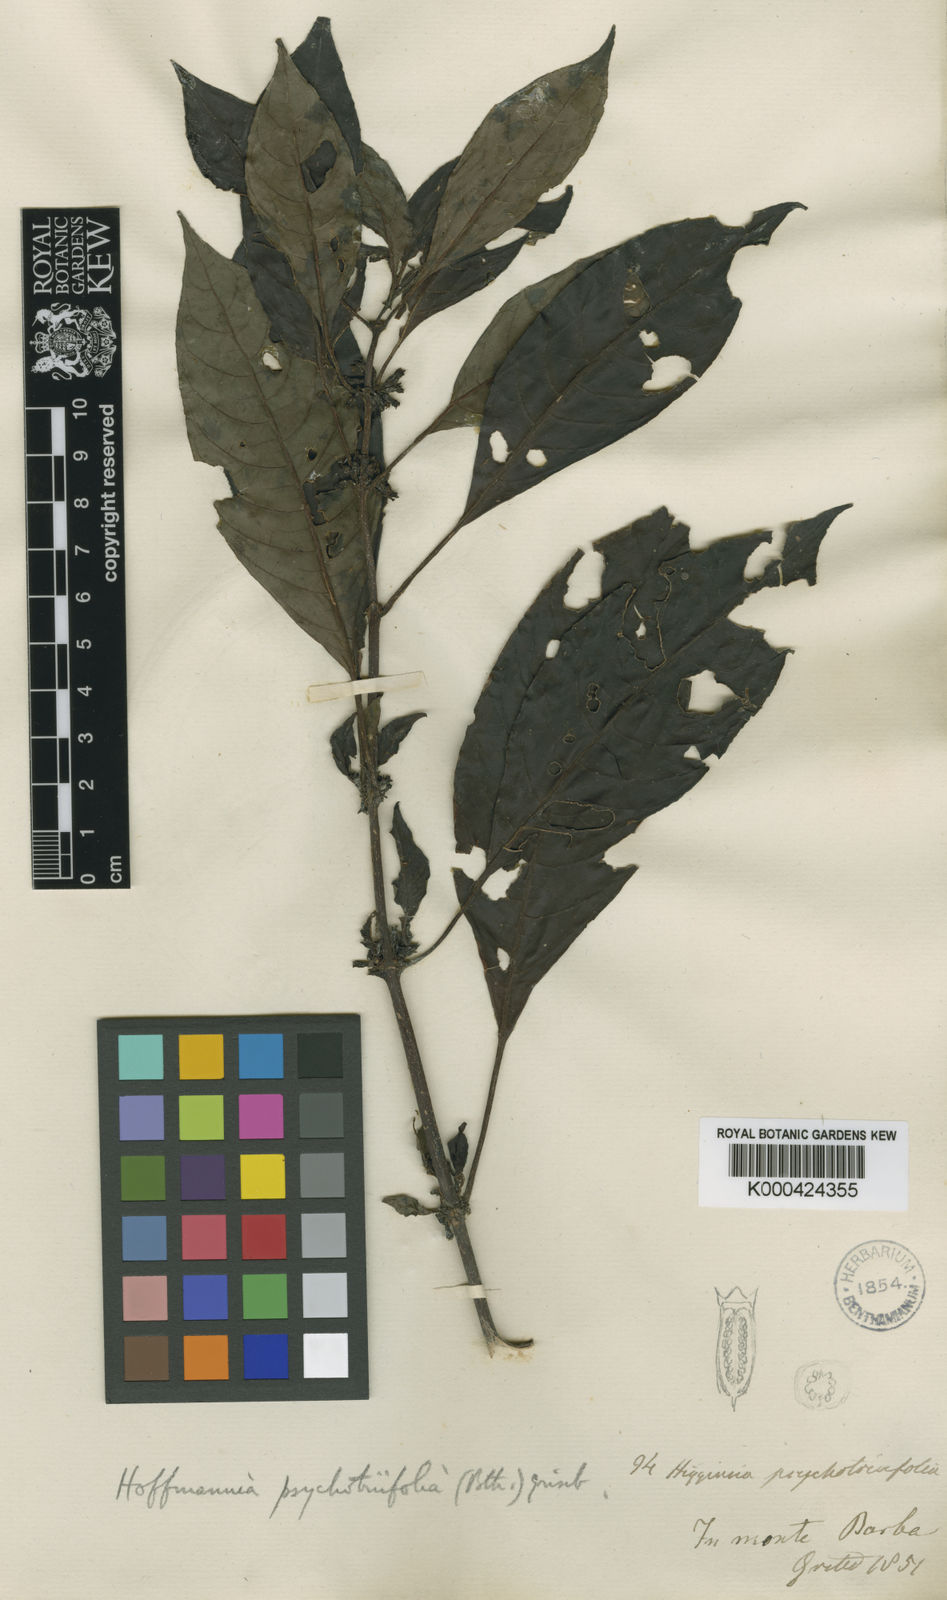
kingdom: Plantae
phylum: Tracheophyta
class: Magnoliopsida
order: Gentianales
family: Rubiaceae
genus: Hoffmannia
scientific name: Hoffmannia psychotriifolia
